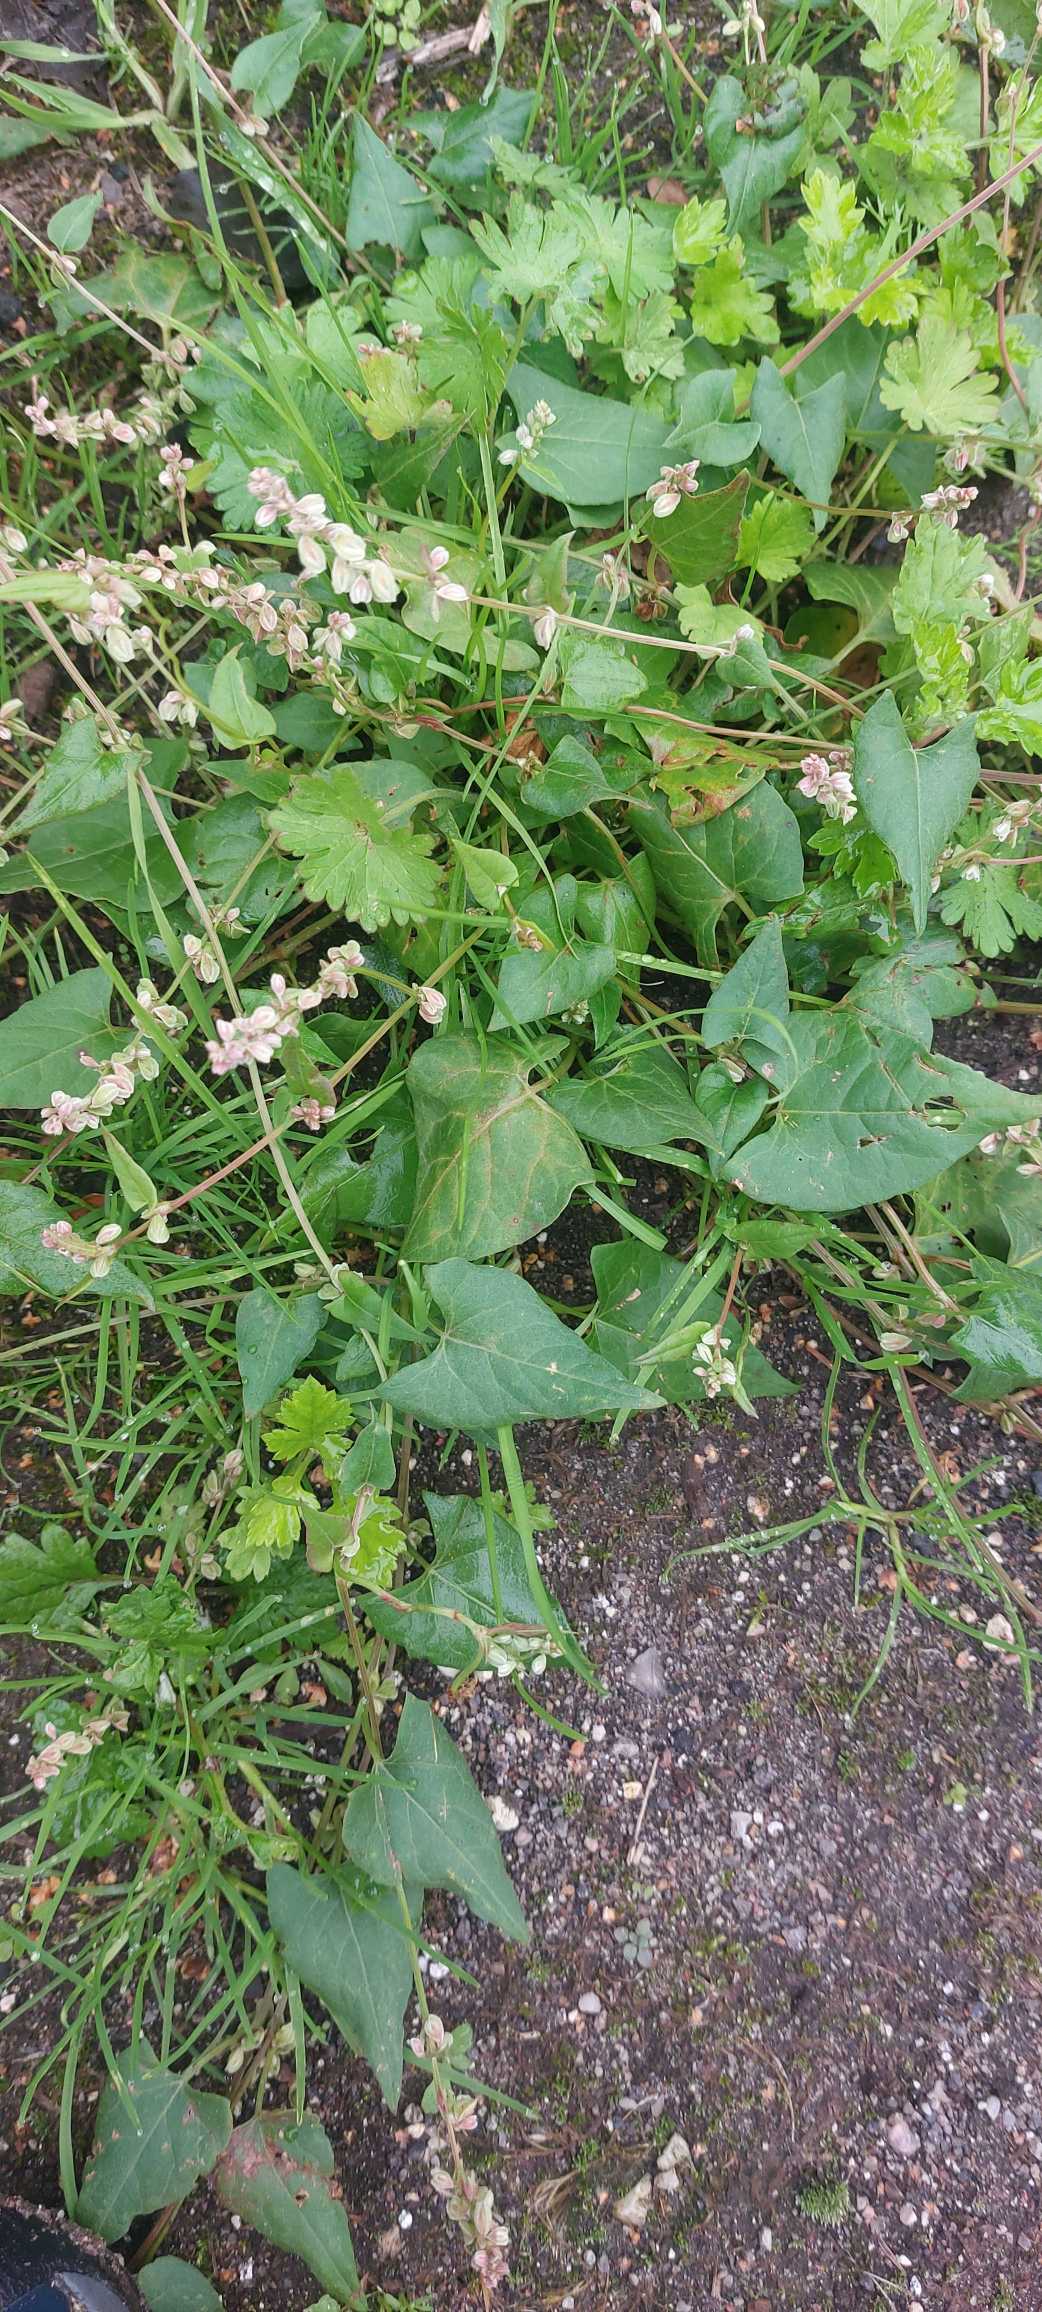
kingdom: Plantae
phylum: Tracheophyta
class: Magnoliopsida
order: Caryophyllales
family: Polygonaceae
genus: Fallopia
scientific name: Fallopia convolvulus
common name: Snerle-pileurt
